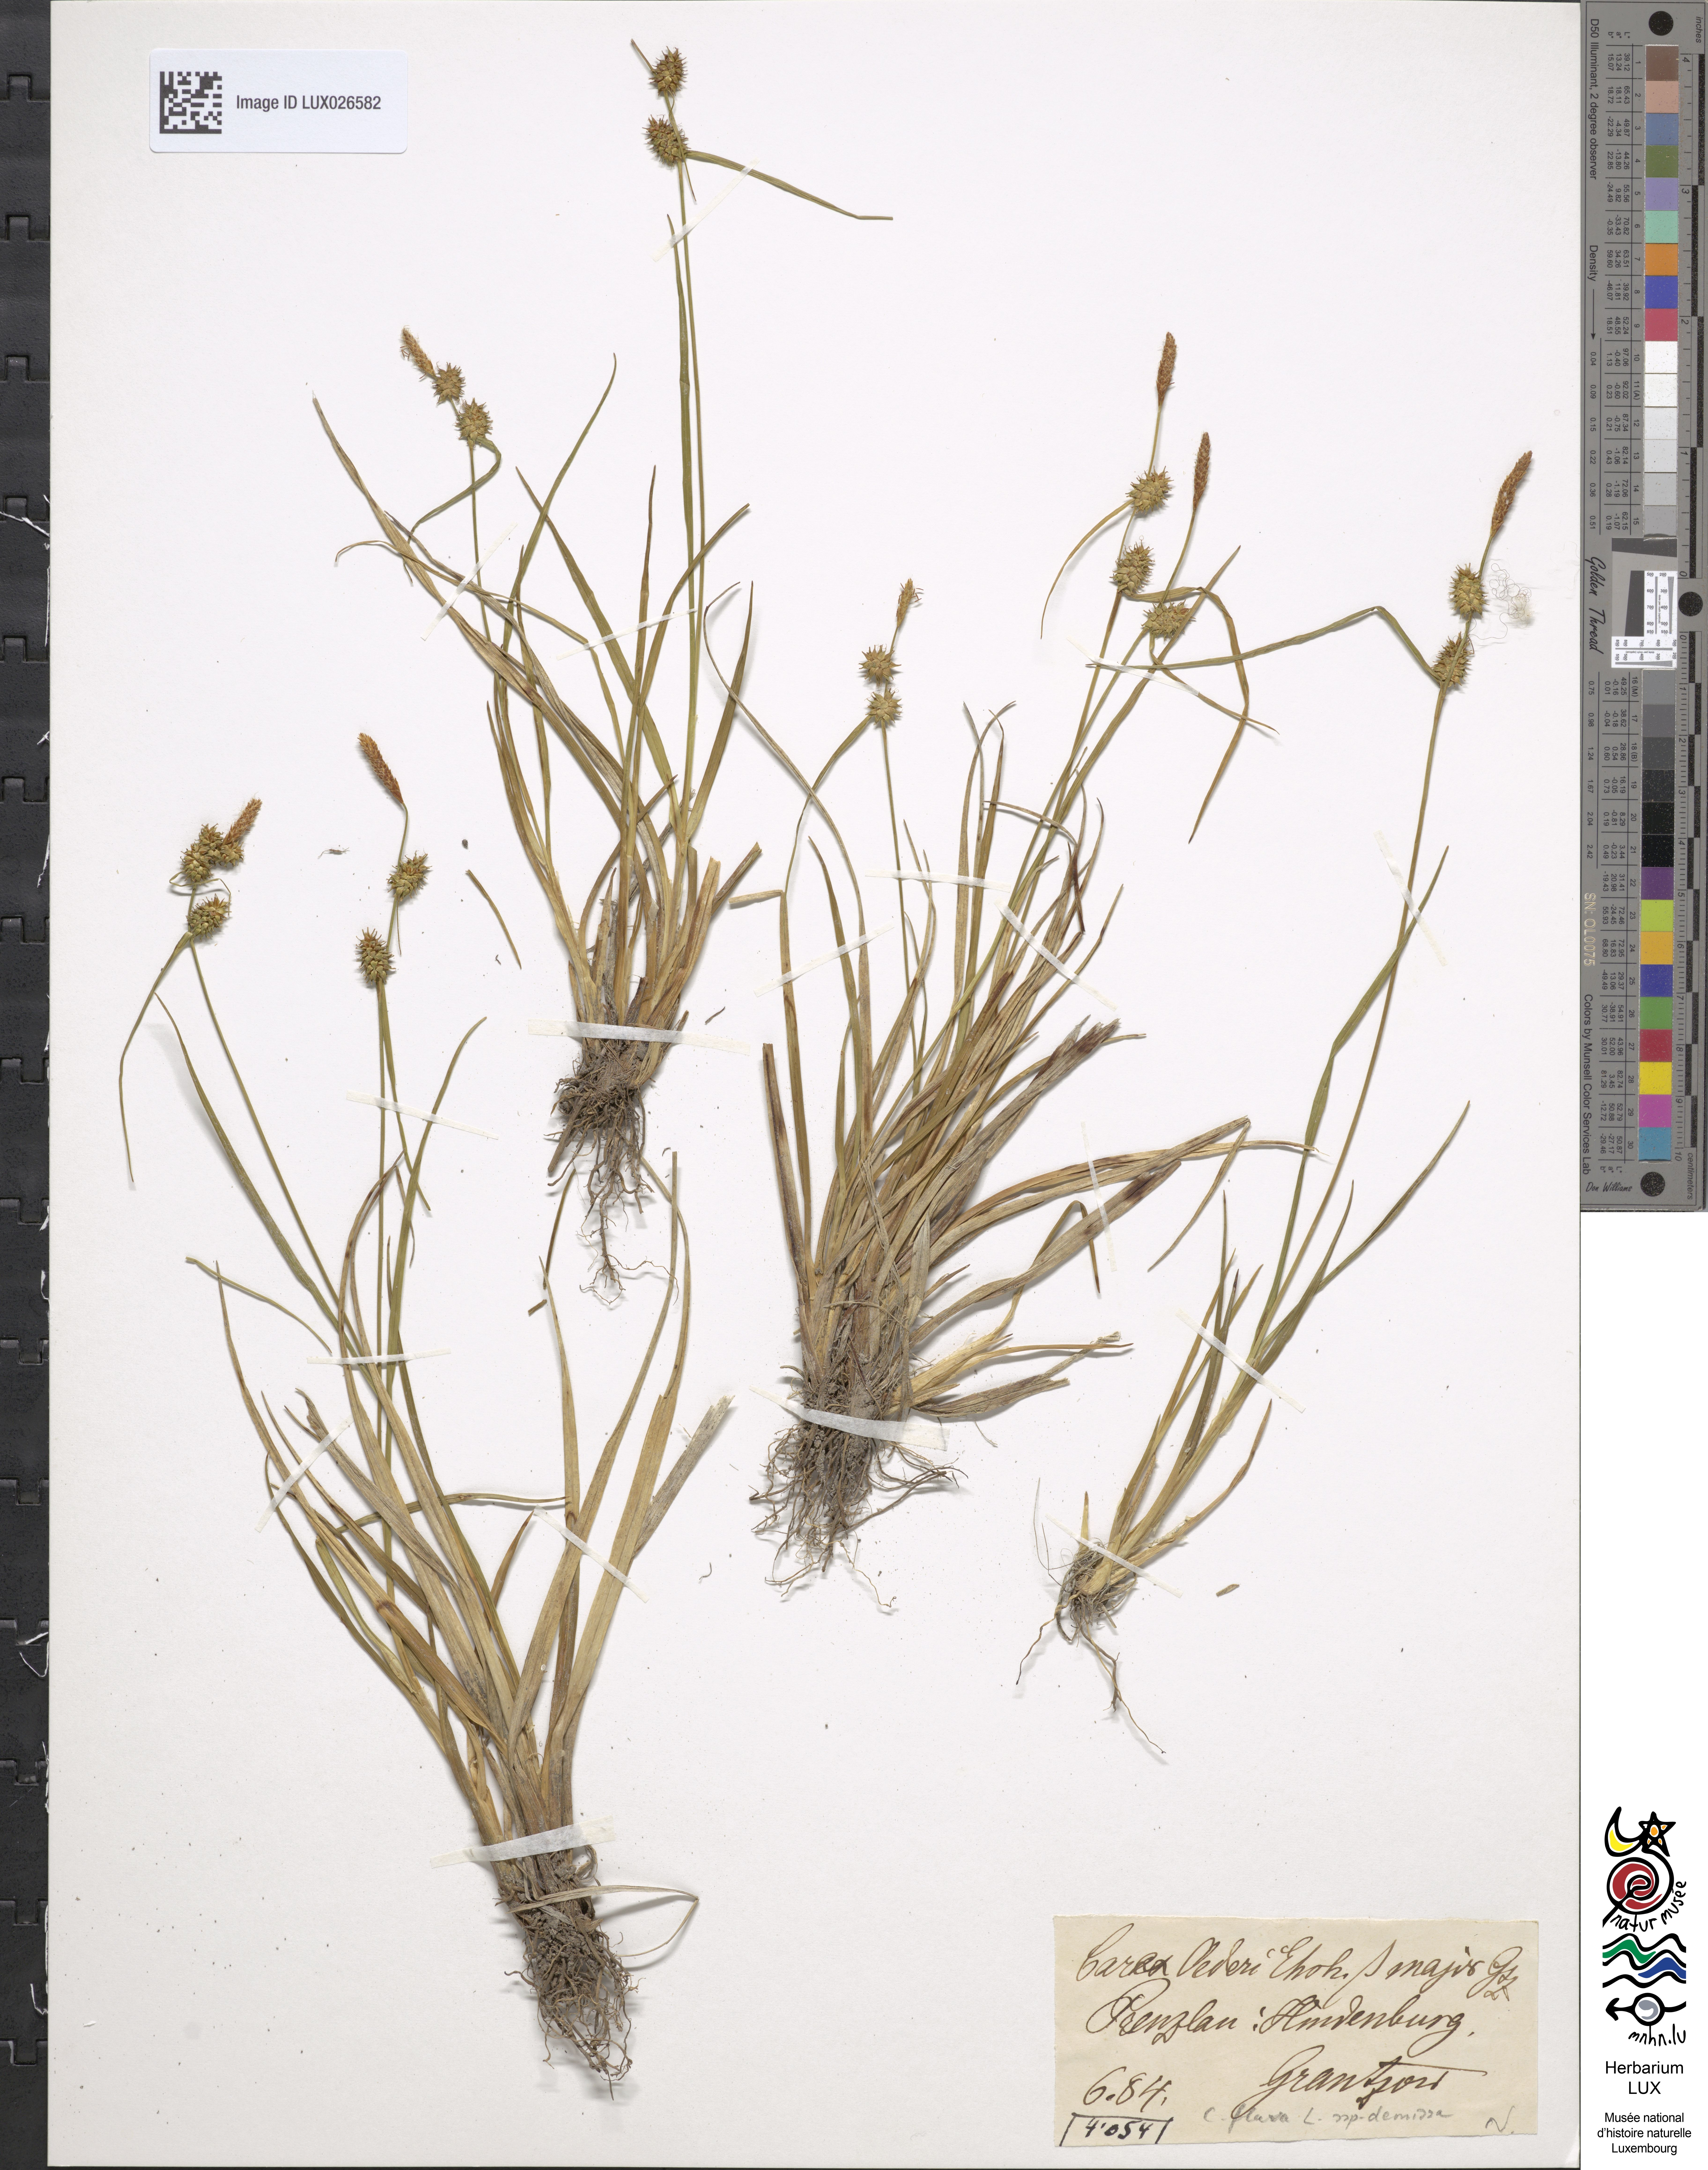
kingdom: Plantae
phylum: Tracheophyta
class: Liliopsida
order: Poales
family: Cyperaceae
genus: Carex
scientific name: Carex demissa
